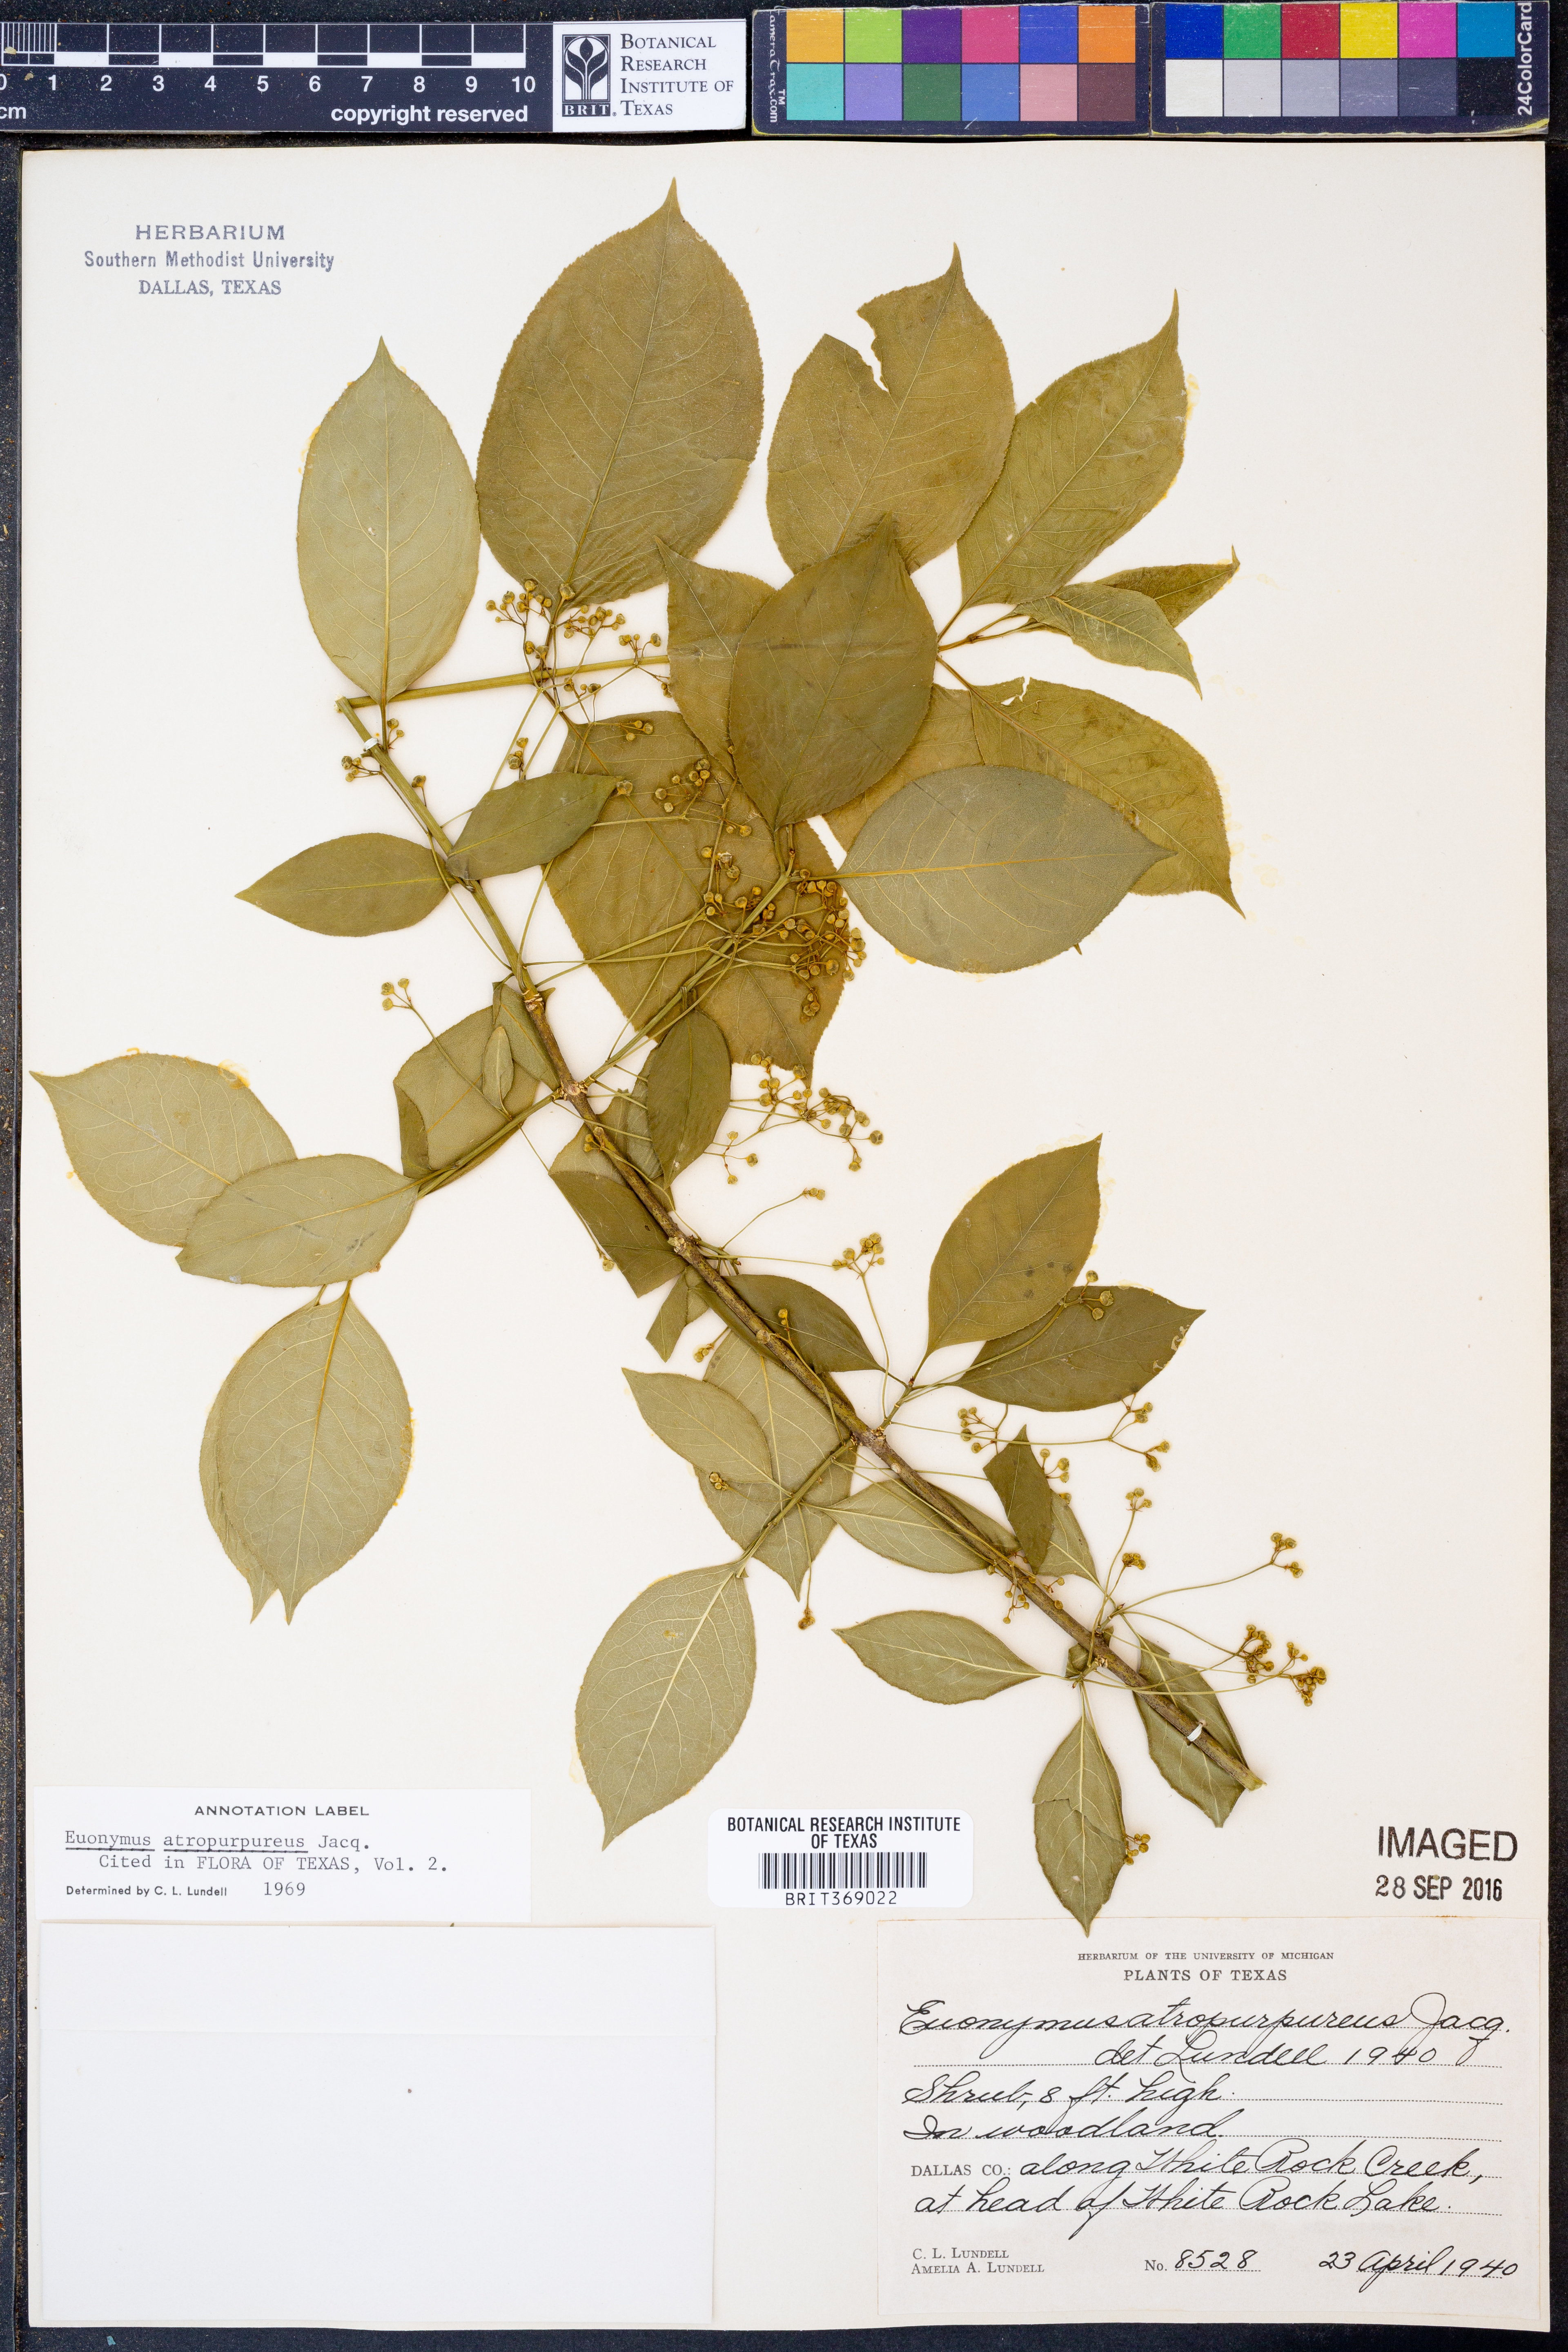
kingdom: Plantae
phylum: Tracheophyta
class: Magnoliopsida
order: Celastrales
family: Celastraceae
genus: Euonymus
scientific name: Euonymus atropurpureus
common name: Eastern wahoo
